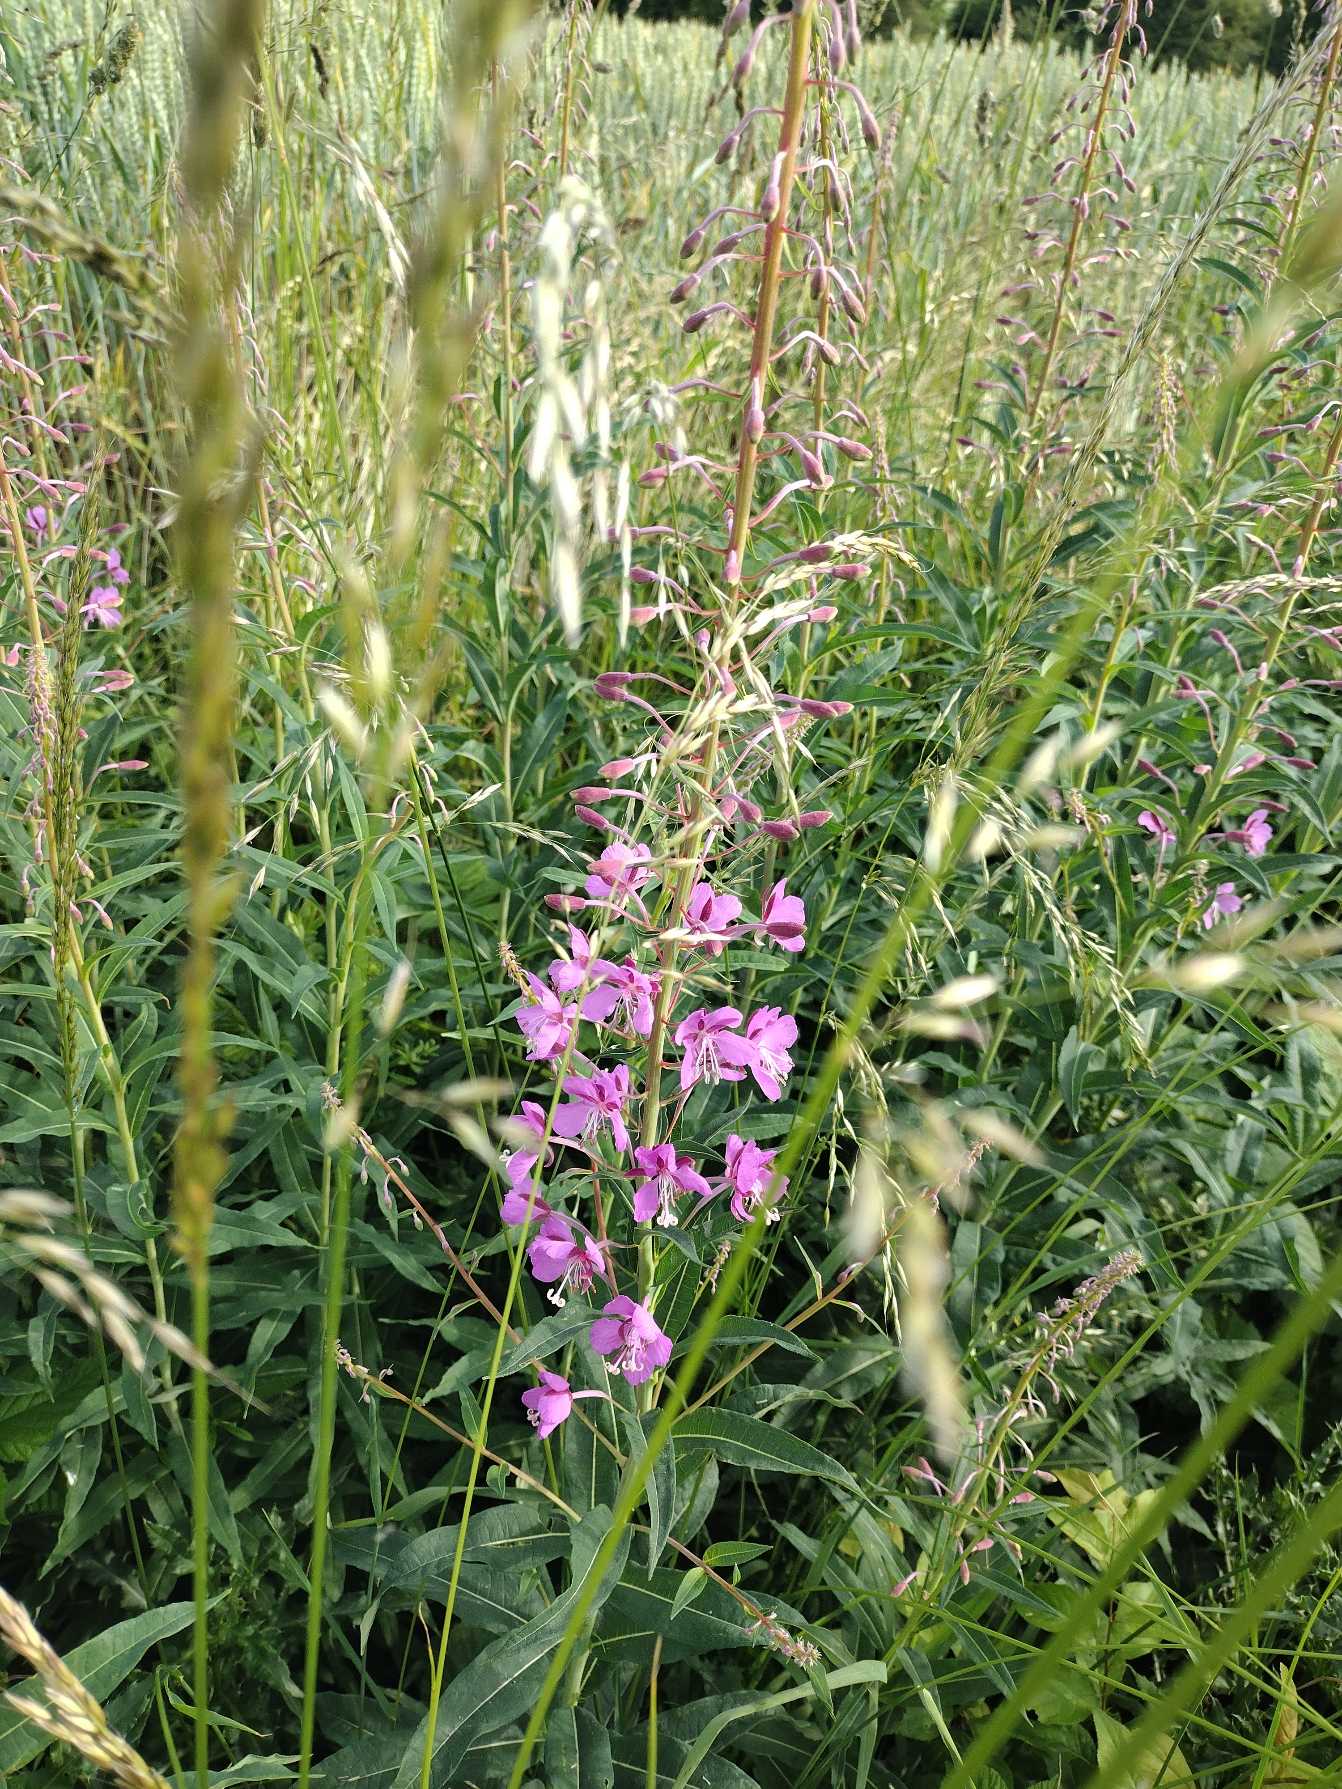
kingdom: Plantae
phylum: Tracheophyta
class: Magnoliopsida
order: Myrtales
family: Onagraceae
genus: Chamaenerion
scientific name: Chamaenerion angustifolium
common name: Gederams
